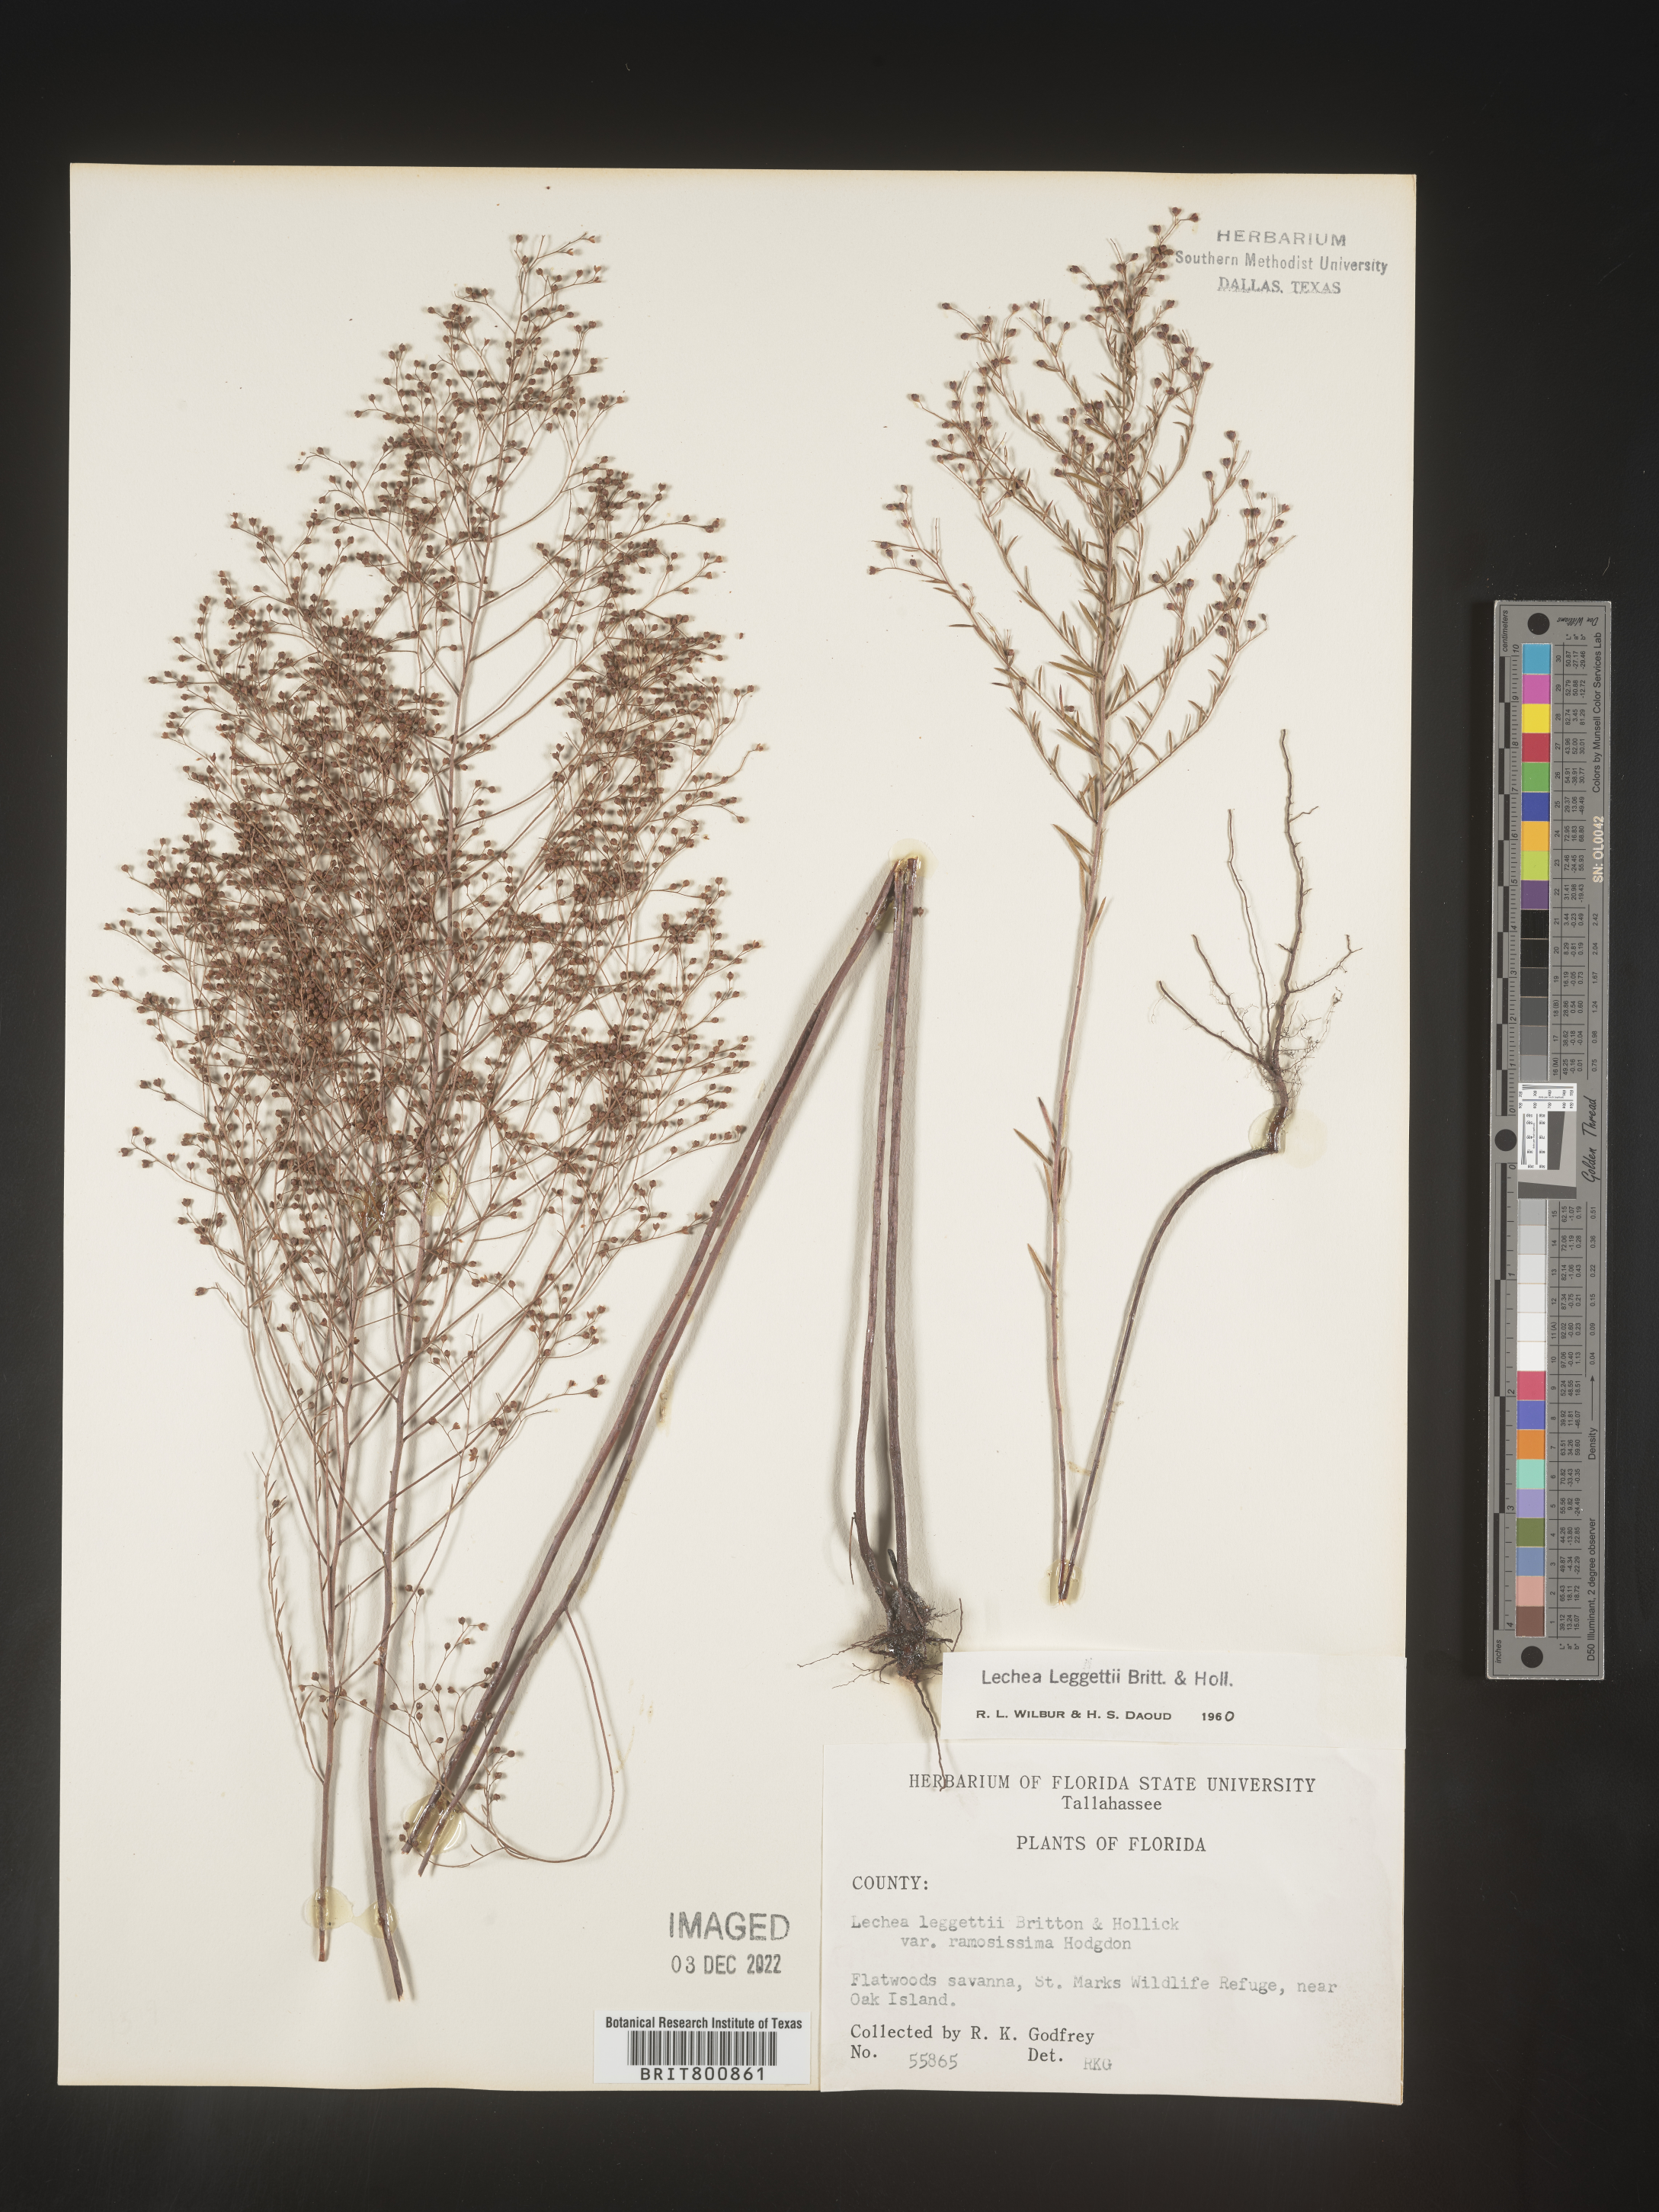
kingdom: Plantae
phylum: Tracheophyta
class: Magnoliopsida
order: Malvales
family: Cistaceae
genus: Lechea
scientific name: Lechea pulchella
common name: Leggett's pinweed
